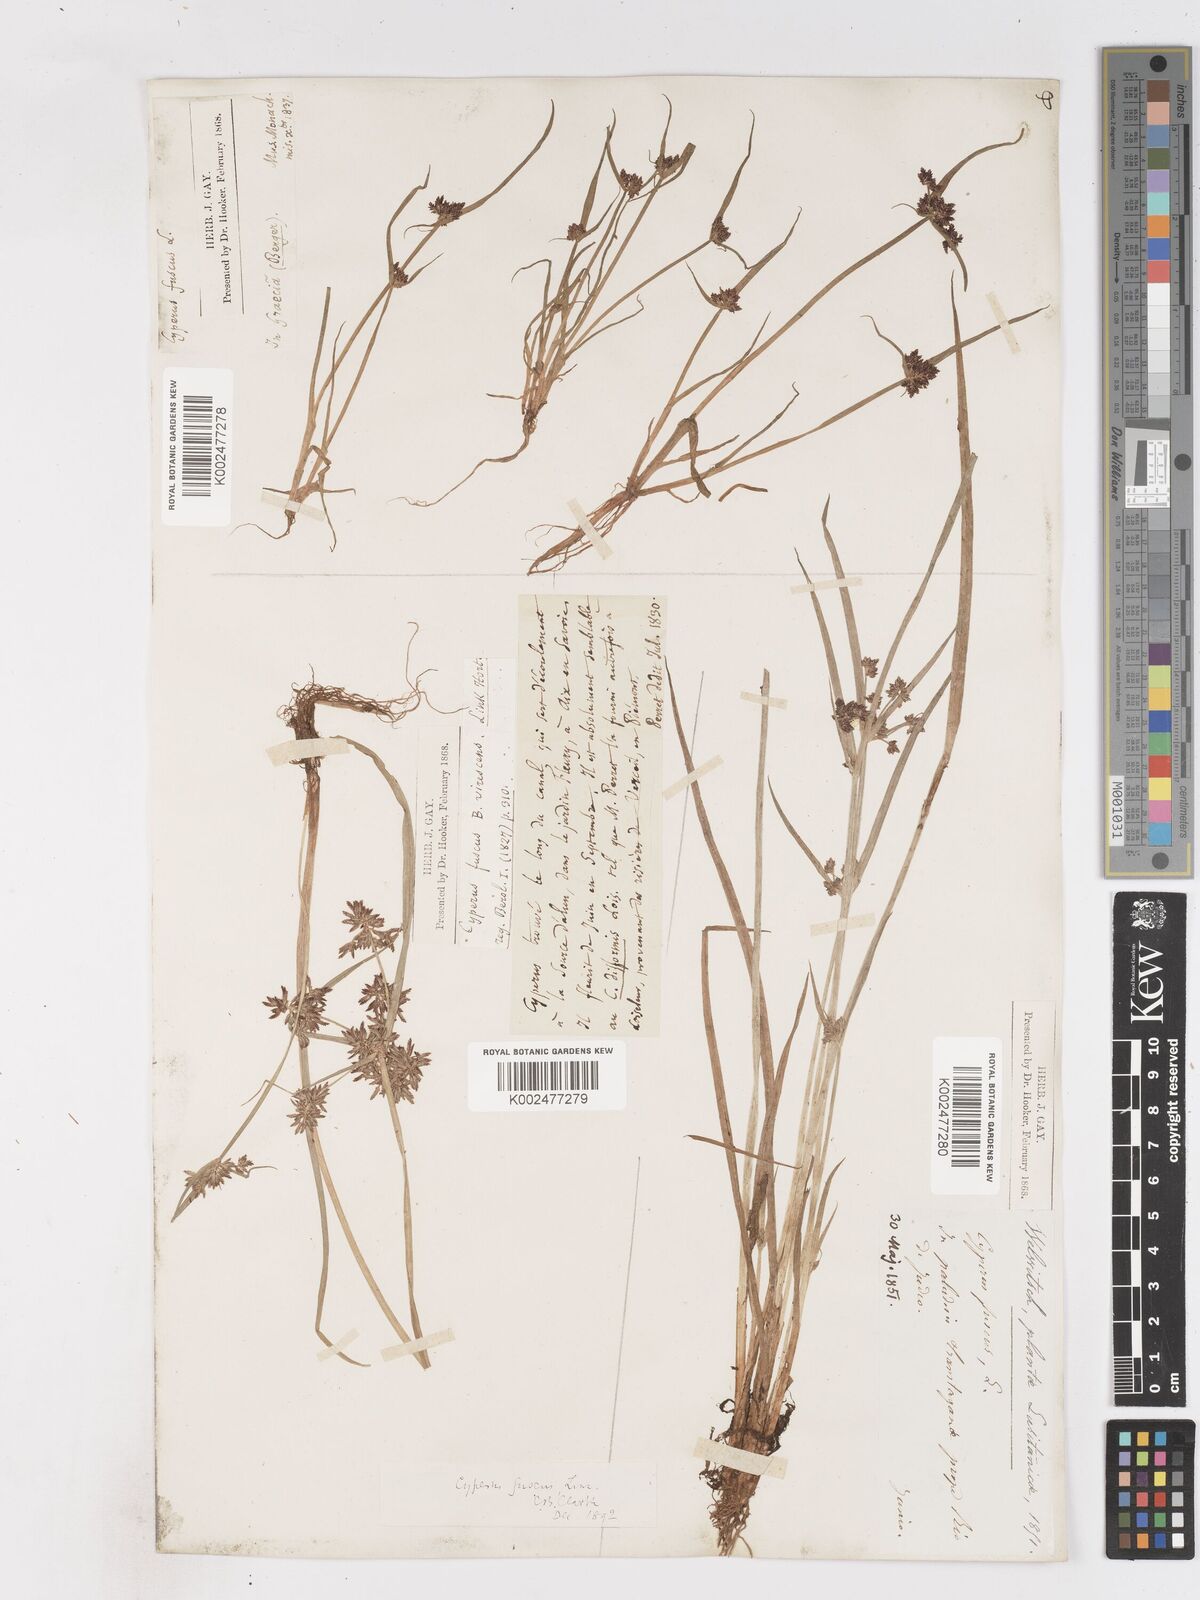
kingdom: Plantae
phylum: Tracheophyta
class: Liliopsida
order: Poales
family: Cyperaceae
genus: Cyperus
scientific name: Cyperus fuscus
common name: Brown galingale
